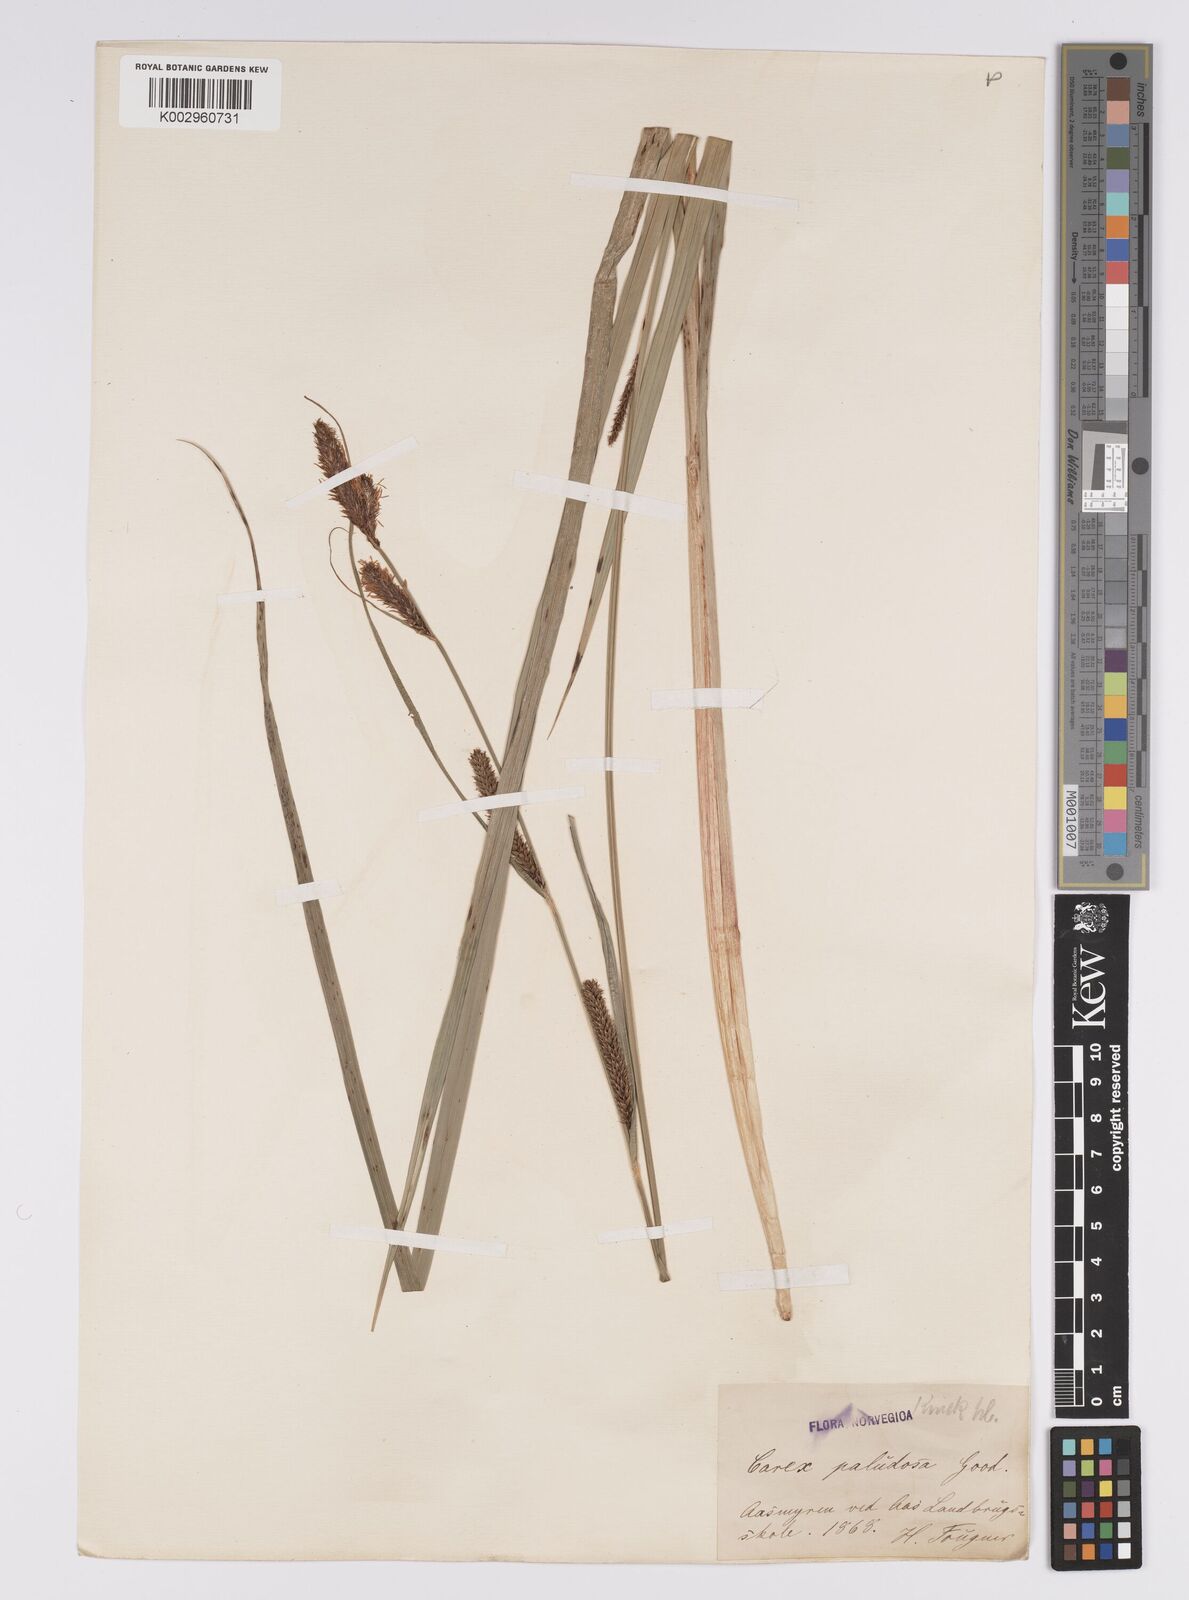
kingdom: Plantae
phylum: Tracheophyta
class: Liliopsida
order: Poales
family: Cyperaceae
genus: Carex
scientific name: Carex acutiformis
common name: Lesser pond-sedge
